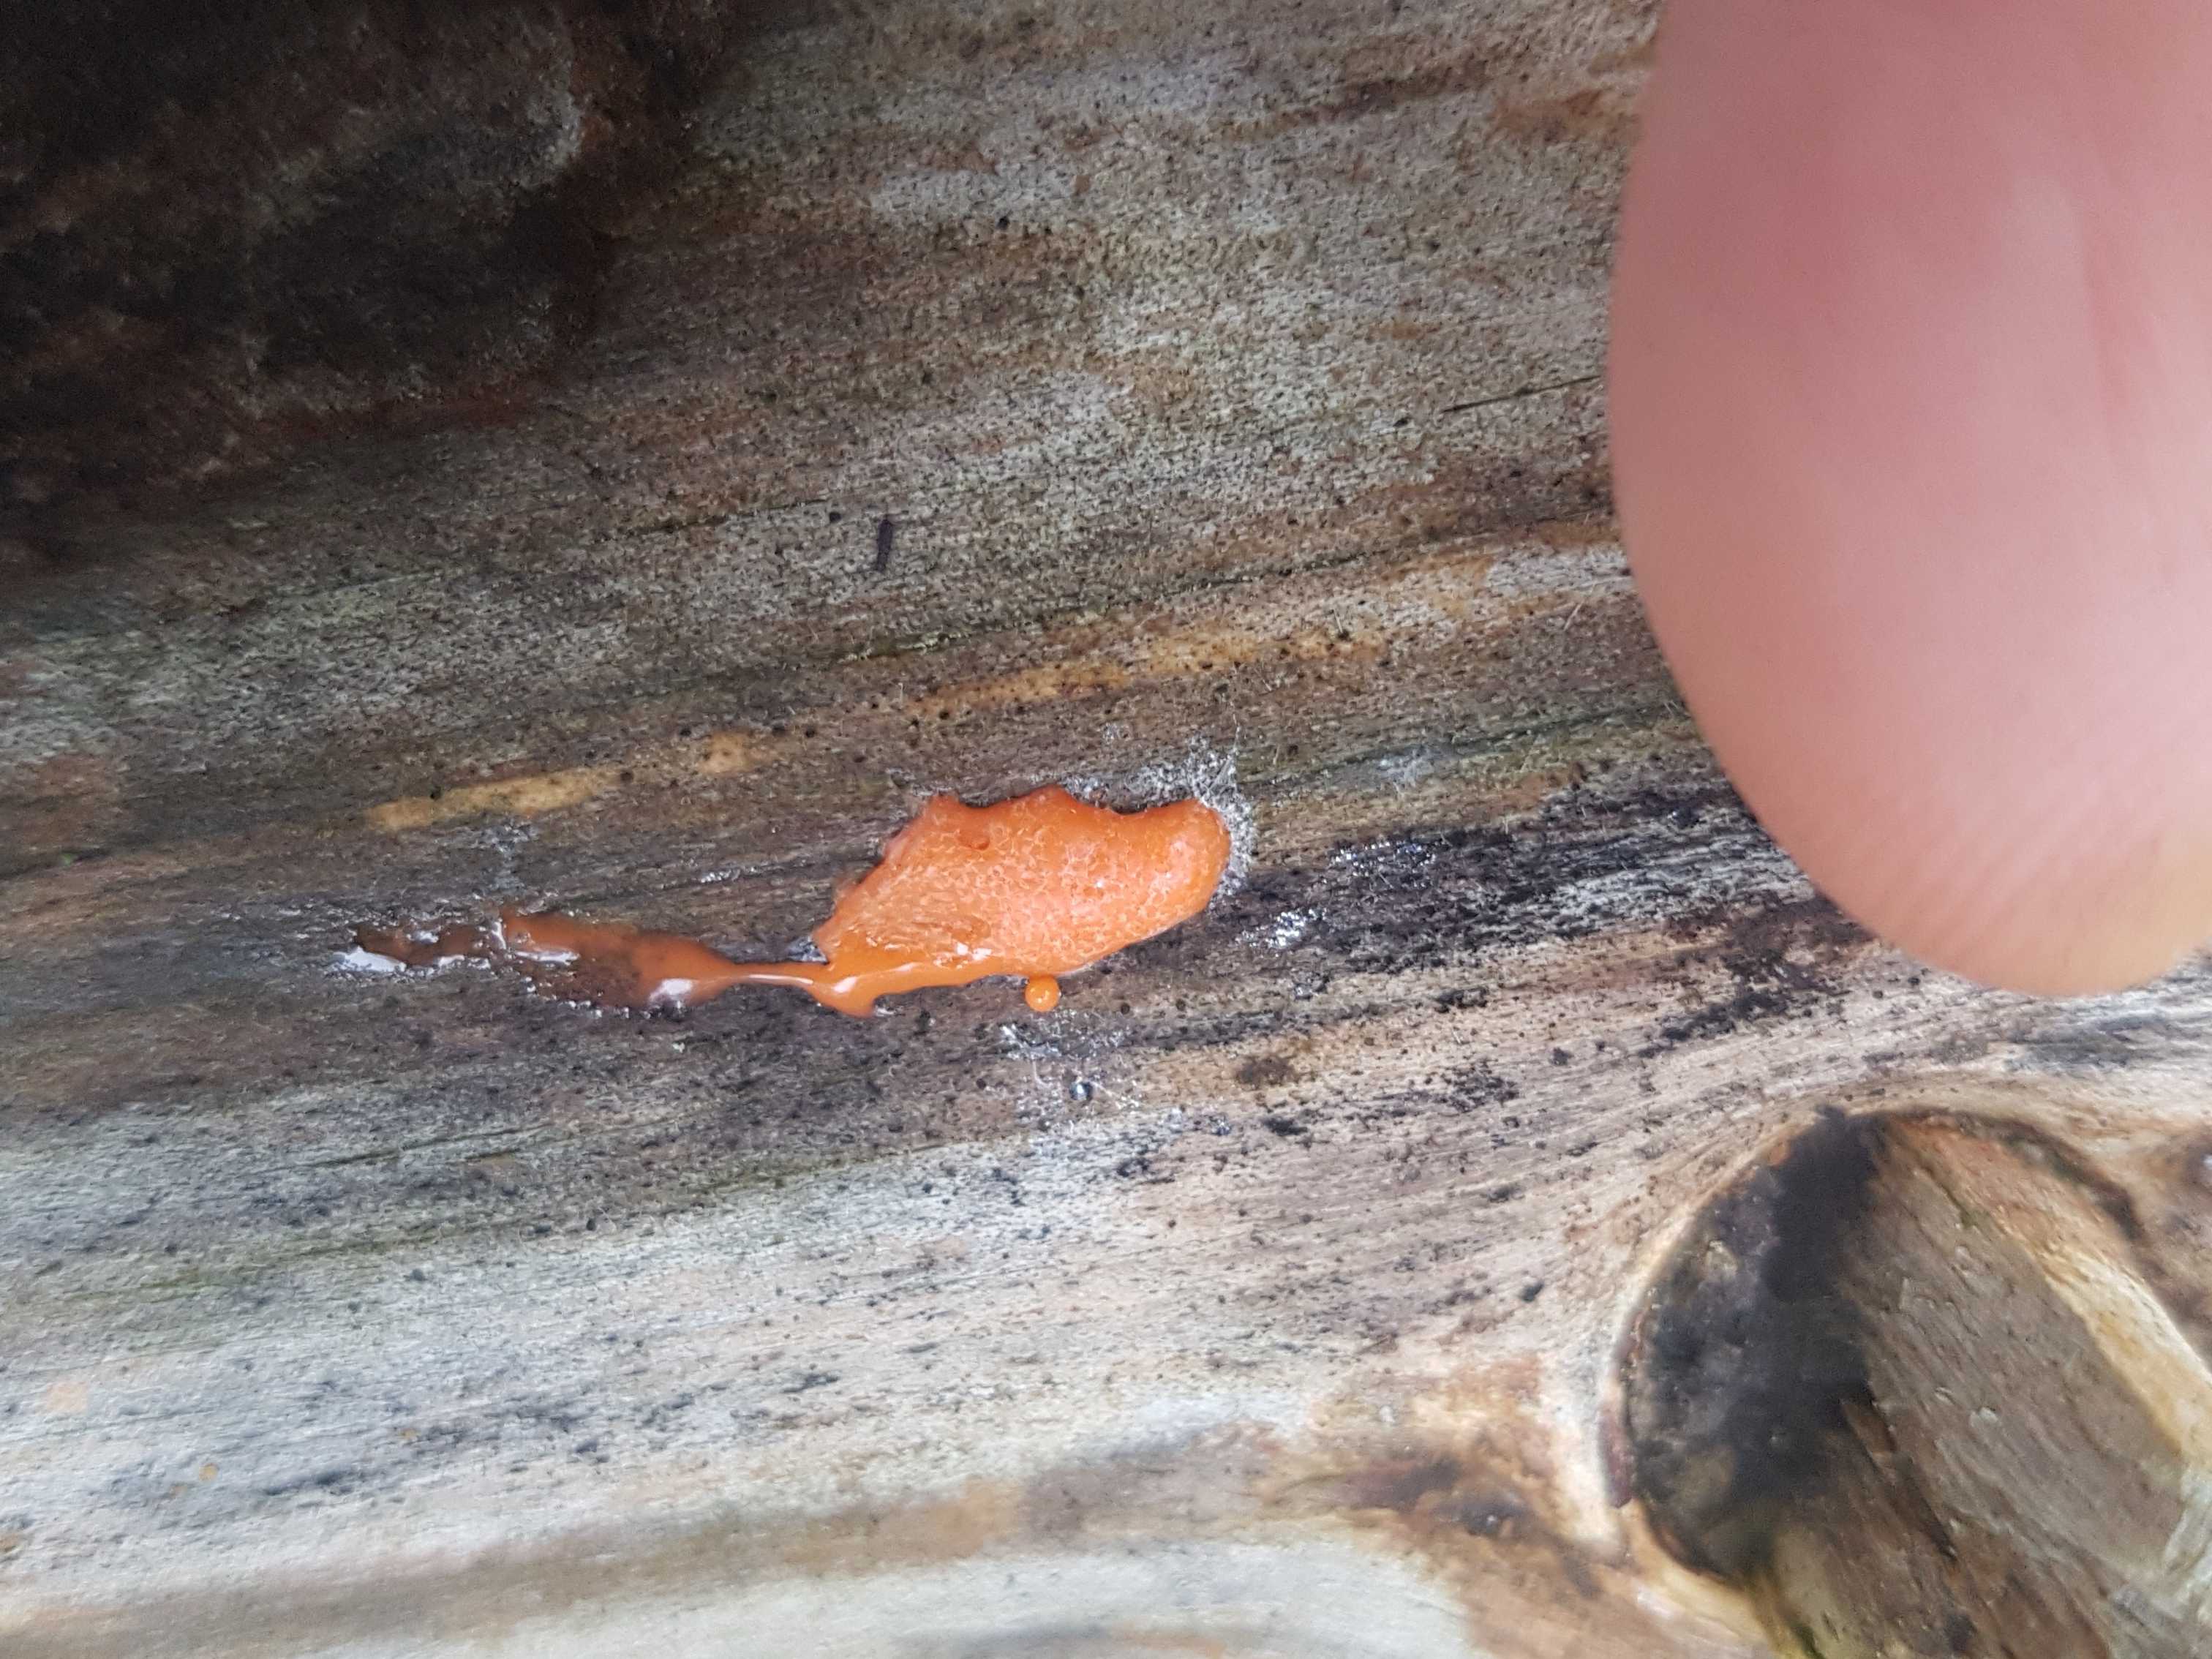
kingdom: Protozoa
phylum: Mycetozoa
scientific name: Mycetozoa
